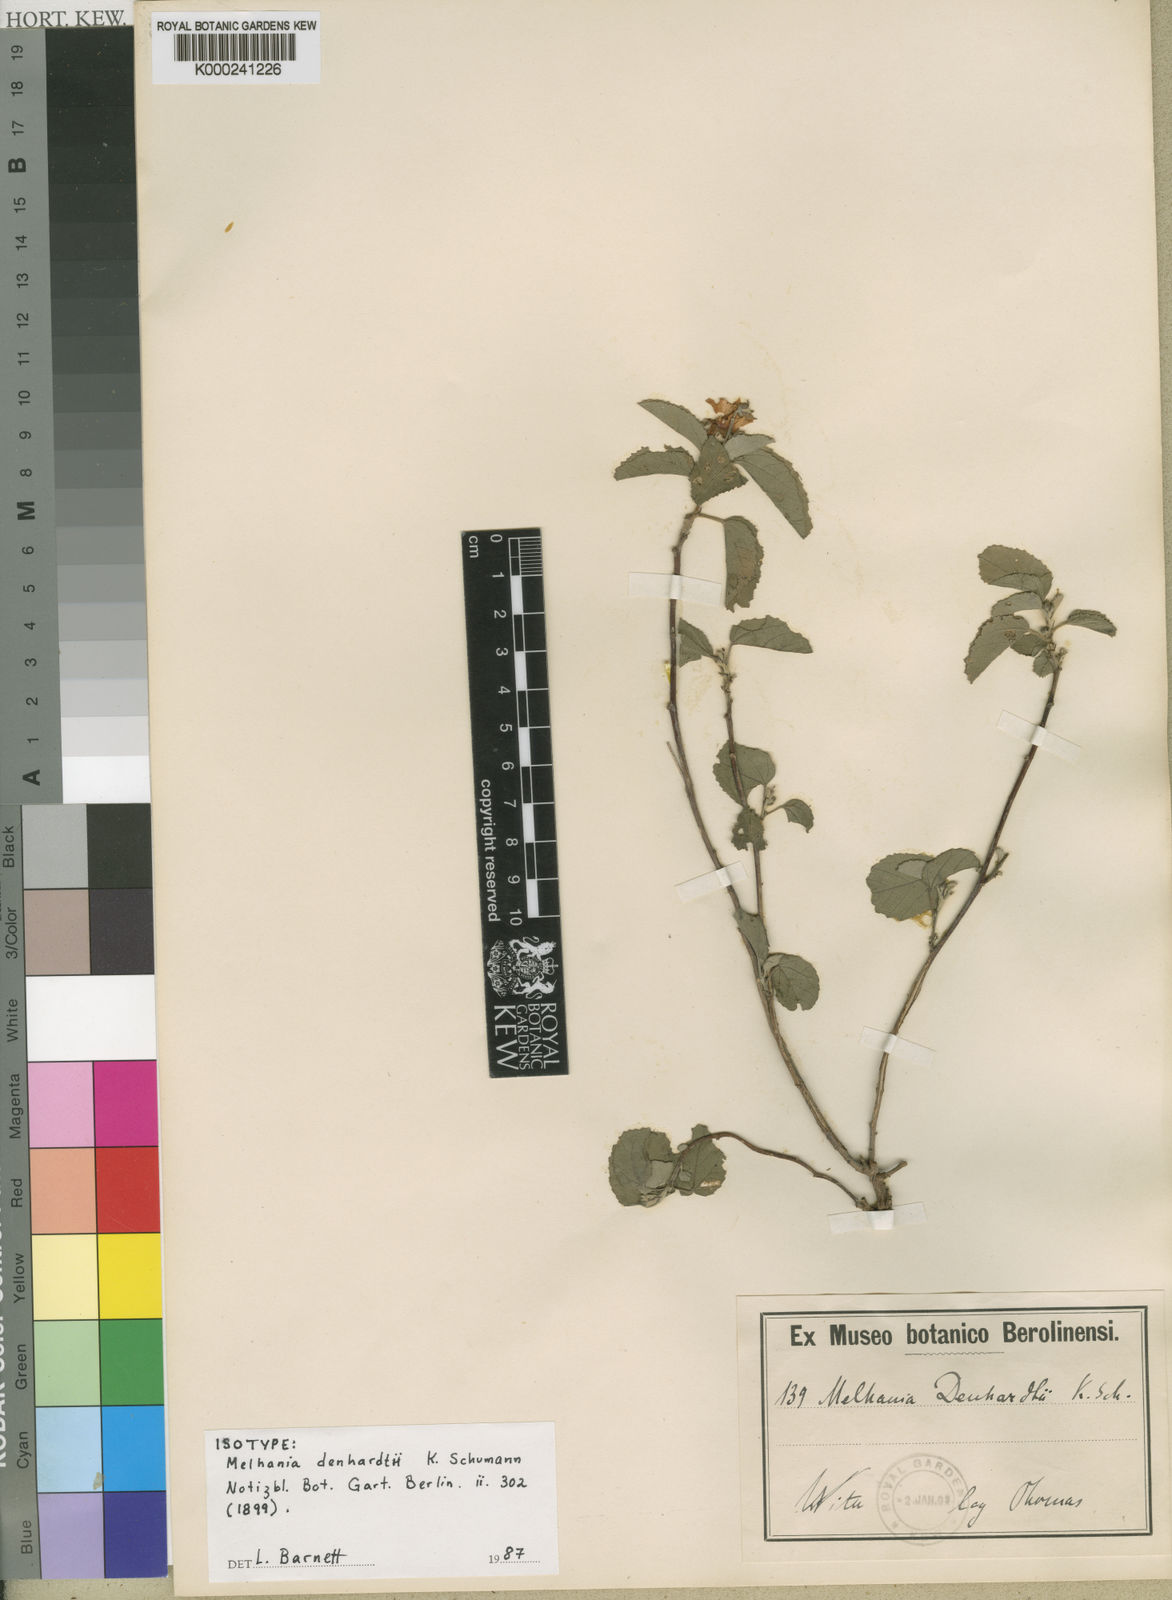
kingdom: Plantae
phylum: Tracheophyta
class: Magnoliopsida
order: Malvales
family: Malvaceae
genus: Melhania
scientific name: Melhania
